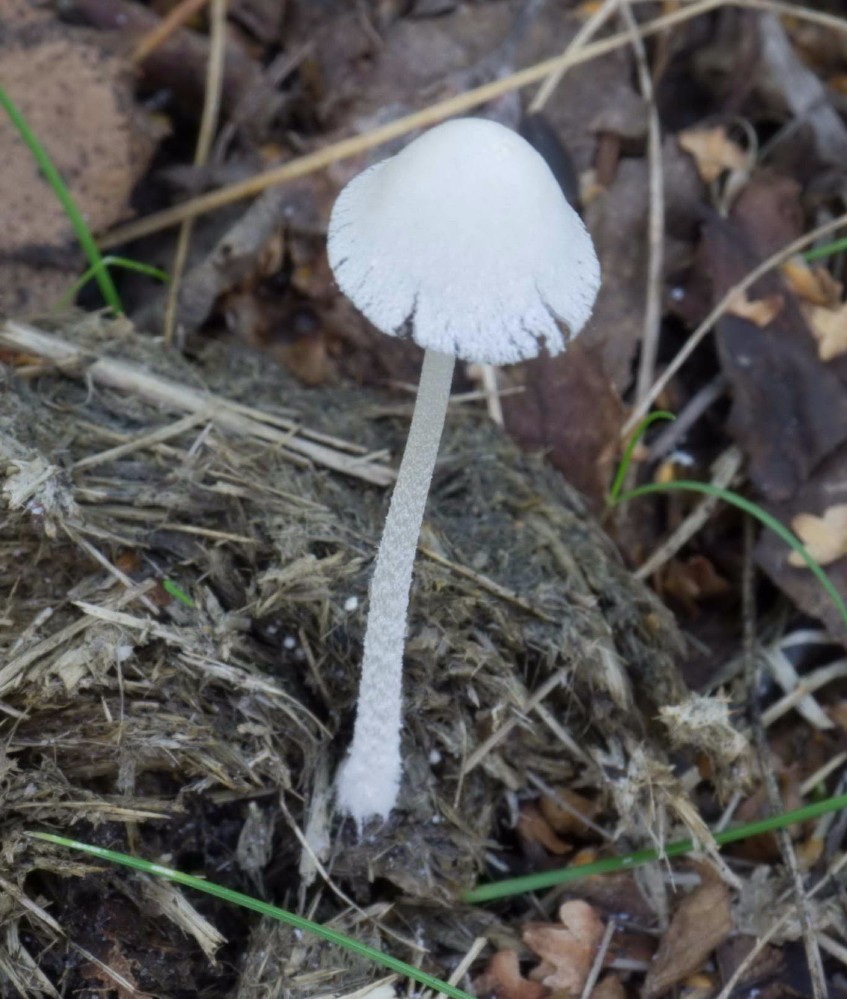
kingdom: Fungi
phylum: Basidiomycota
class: Agaricomycetes
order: Agaricales
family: Psathyrellaceae
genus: Coprinopsis
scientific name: Coprinopsis nivea
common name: snehvid blækhat
